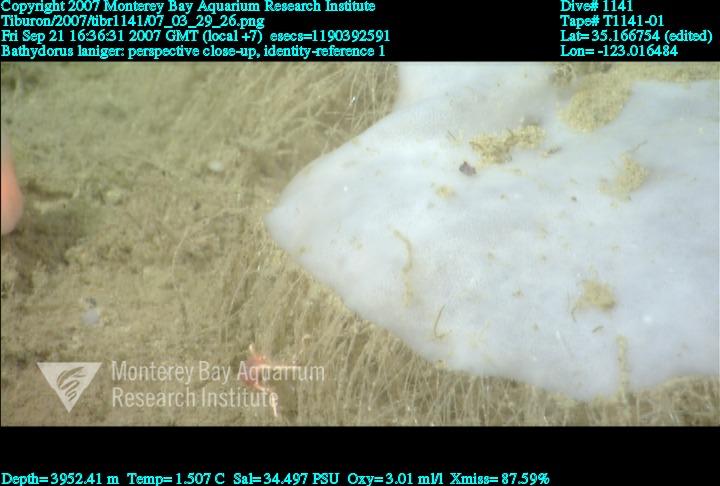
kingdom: Animalia
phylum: Porifera
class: Hexactinellida
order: Lyssacinosida
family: Rossellidae
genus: Bathydorus
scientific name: Bathydorus laniger
